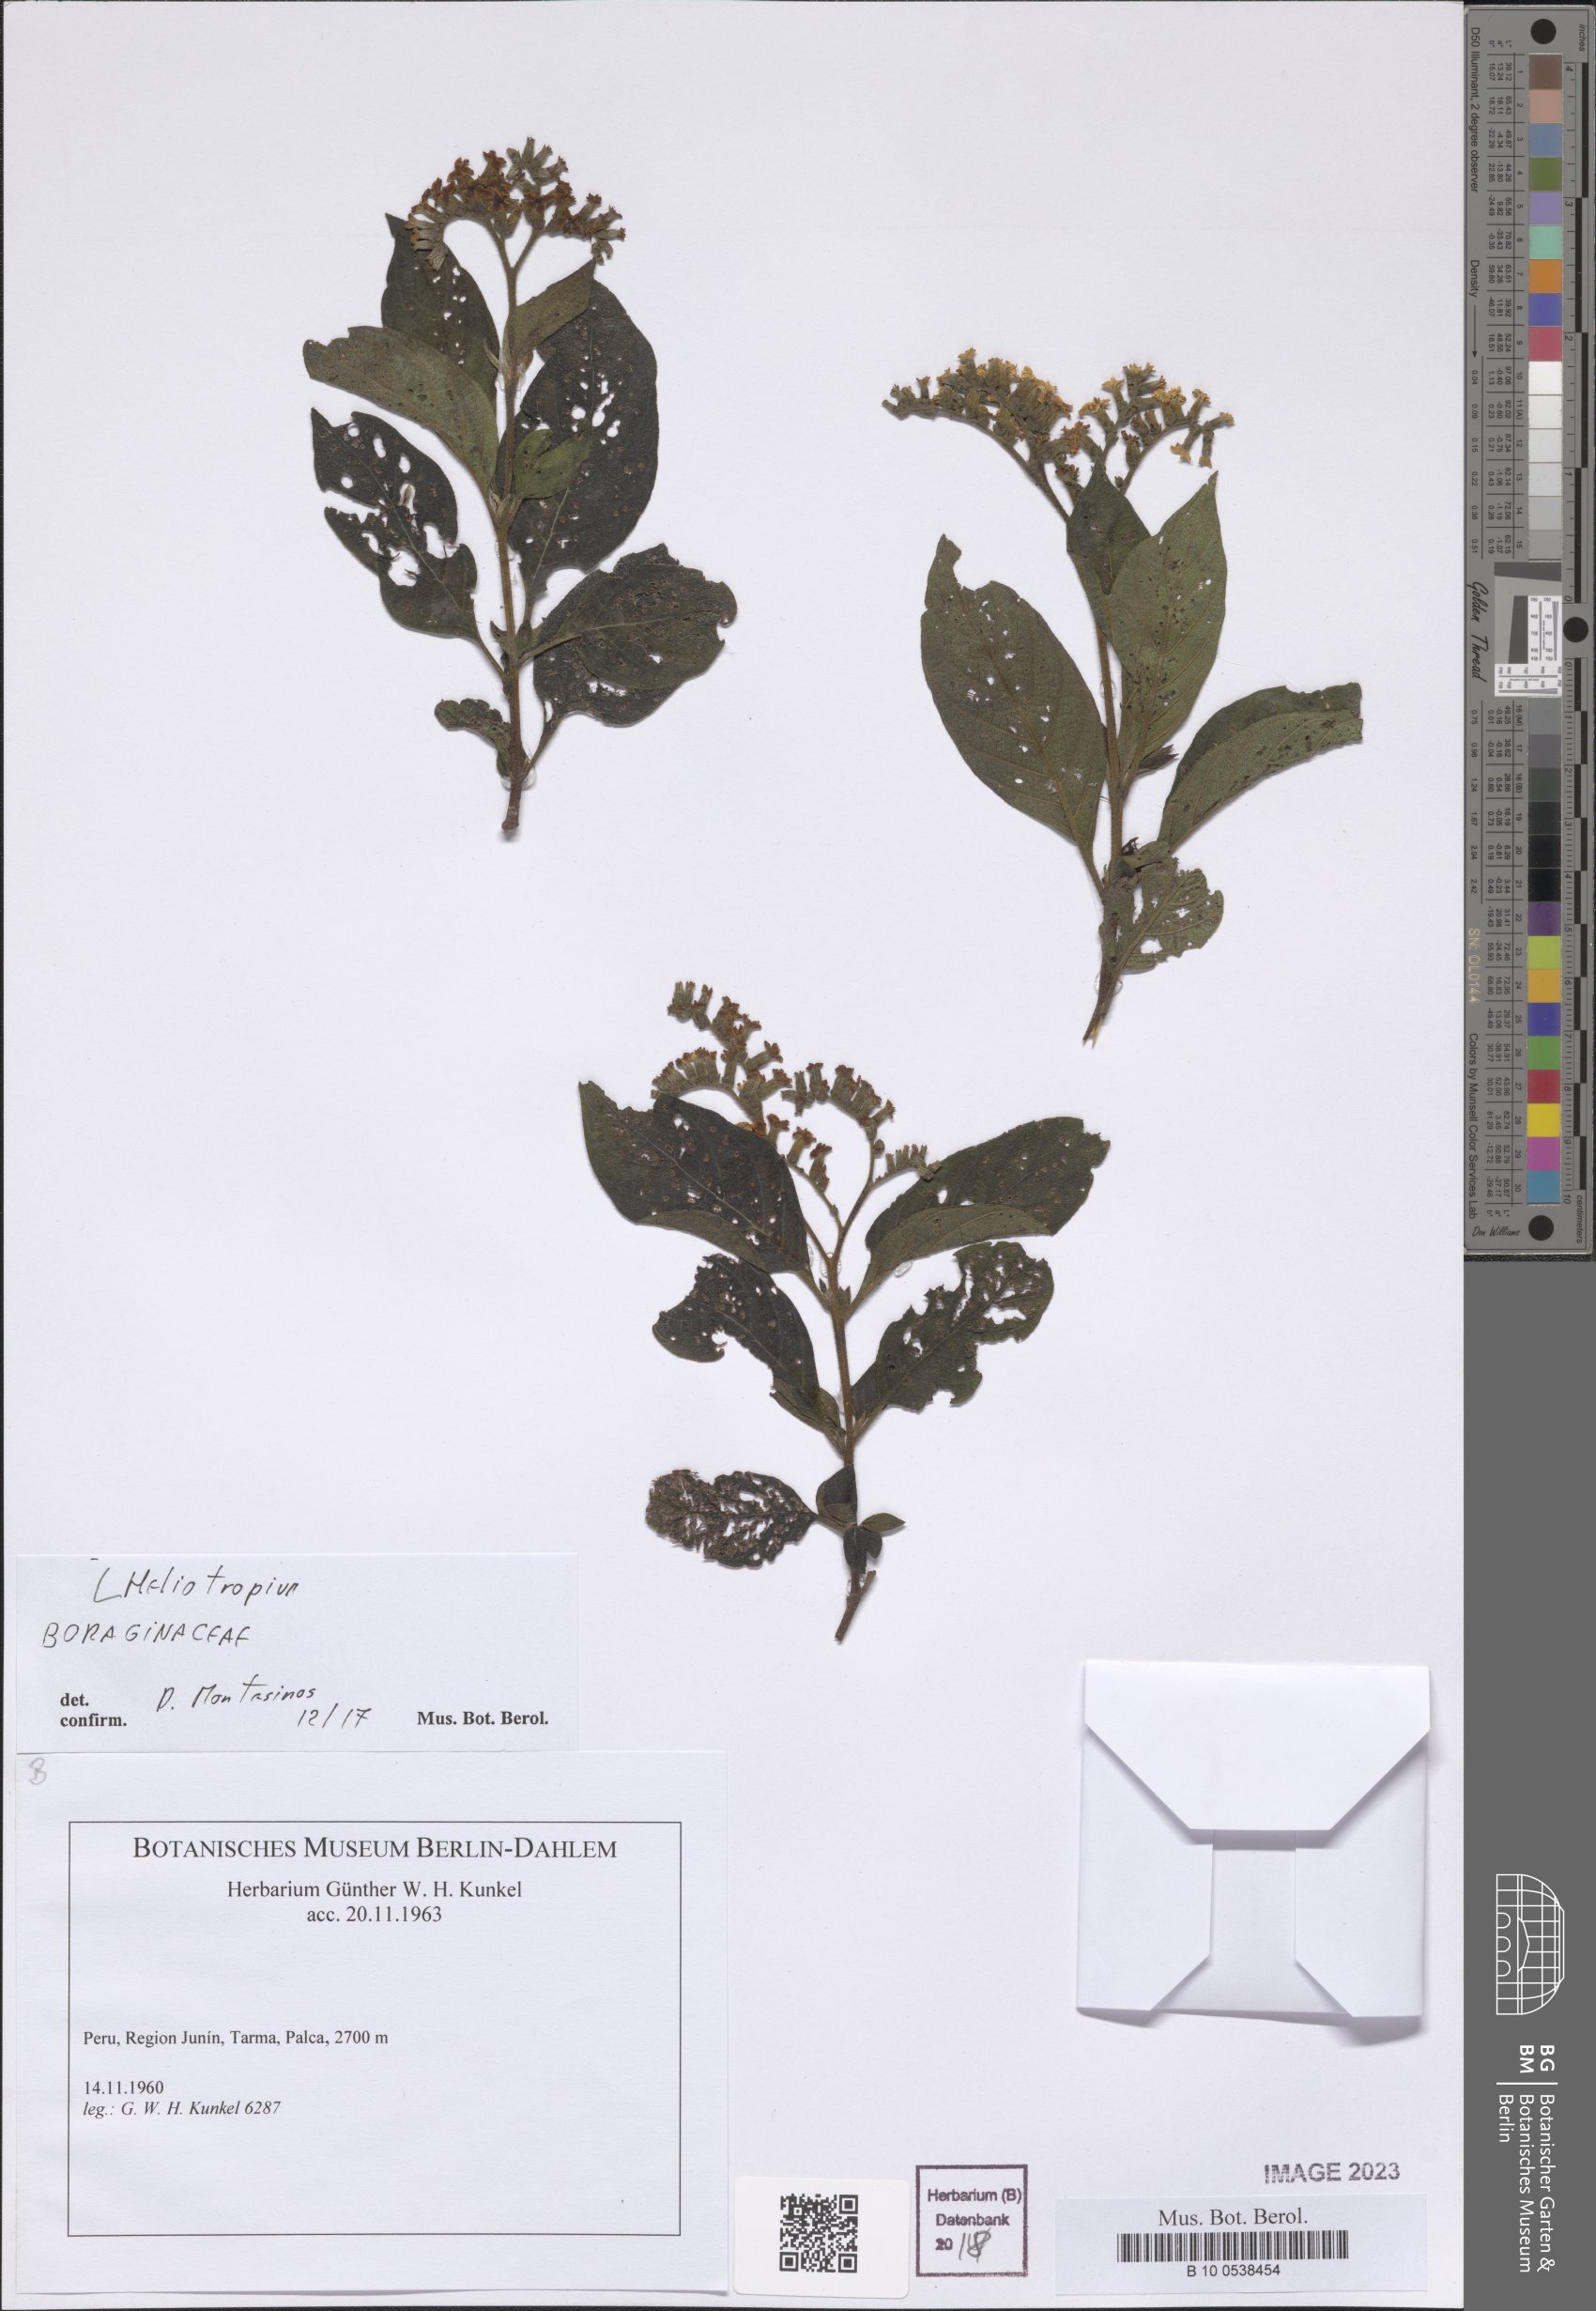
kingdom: Plantae
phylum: Tracheophyta
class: Magnoliopsida
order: Boraginales
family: Heliotropiaceae
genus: Heliotropium
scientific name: Heliotropium
